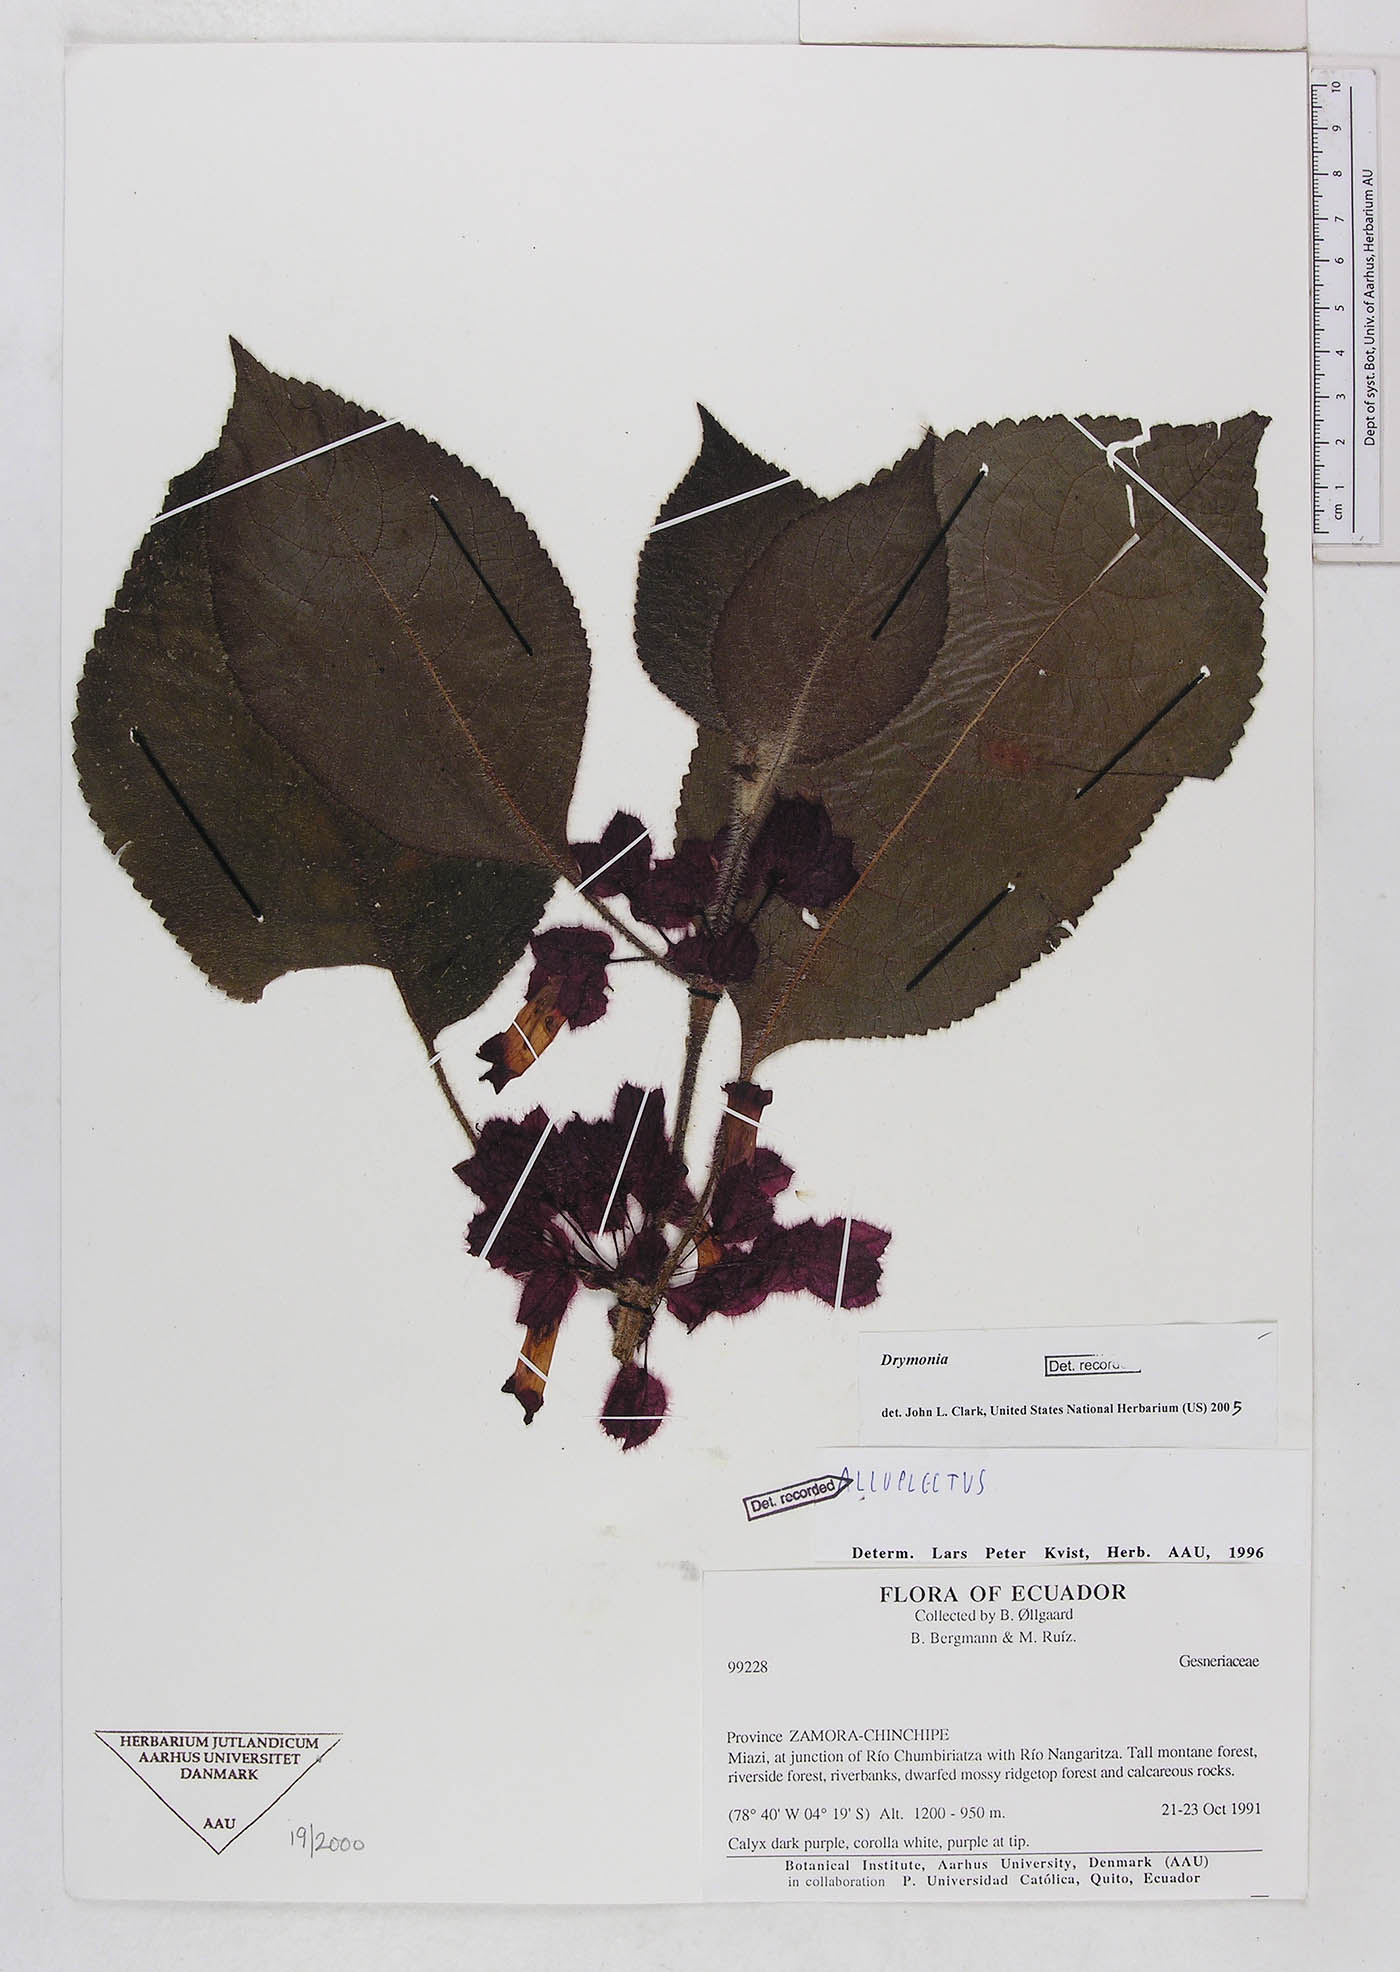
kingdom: Plantae
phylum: Tracheophyta
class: Magnoliopsida
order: Lamiales
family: Gesneriaceae
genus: Drymonia
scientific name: Drymonia
